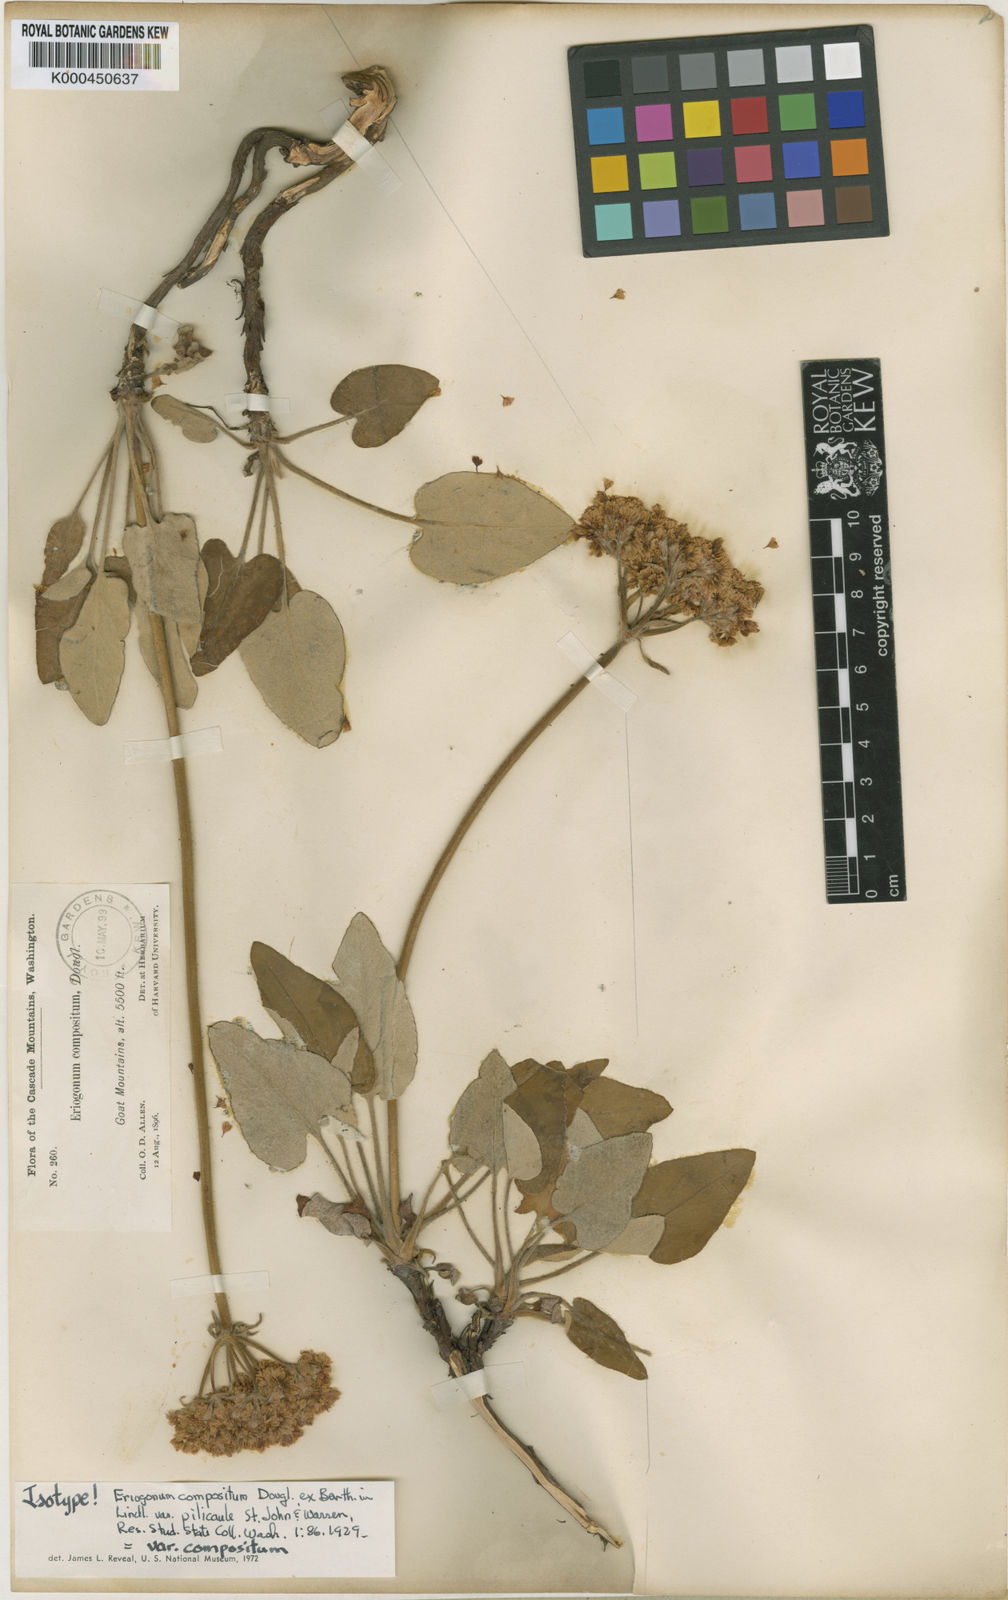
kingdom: Plantae
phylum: Tracheophyta
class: Magnoliopsida
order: Caryophyllales
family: Polygonaceae
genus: Eriogonum
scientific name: Eriogonum
